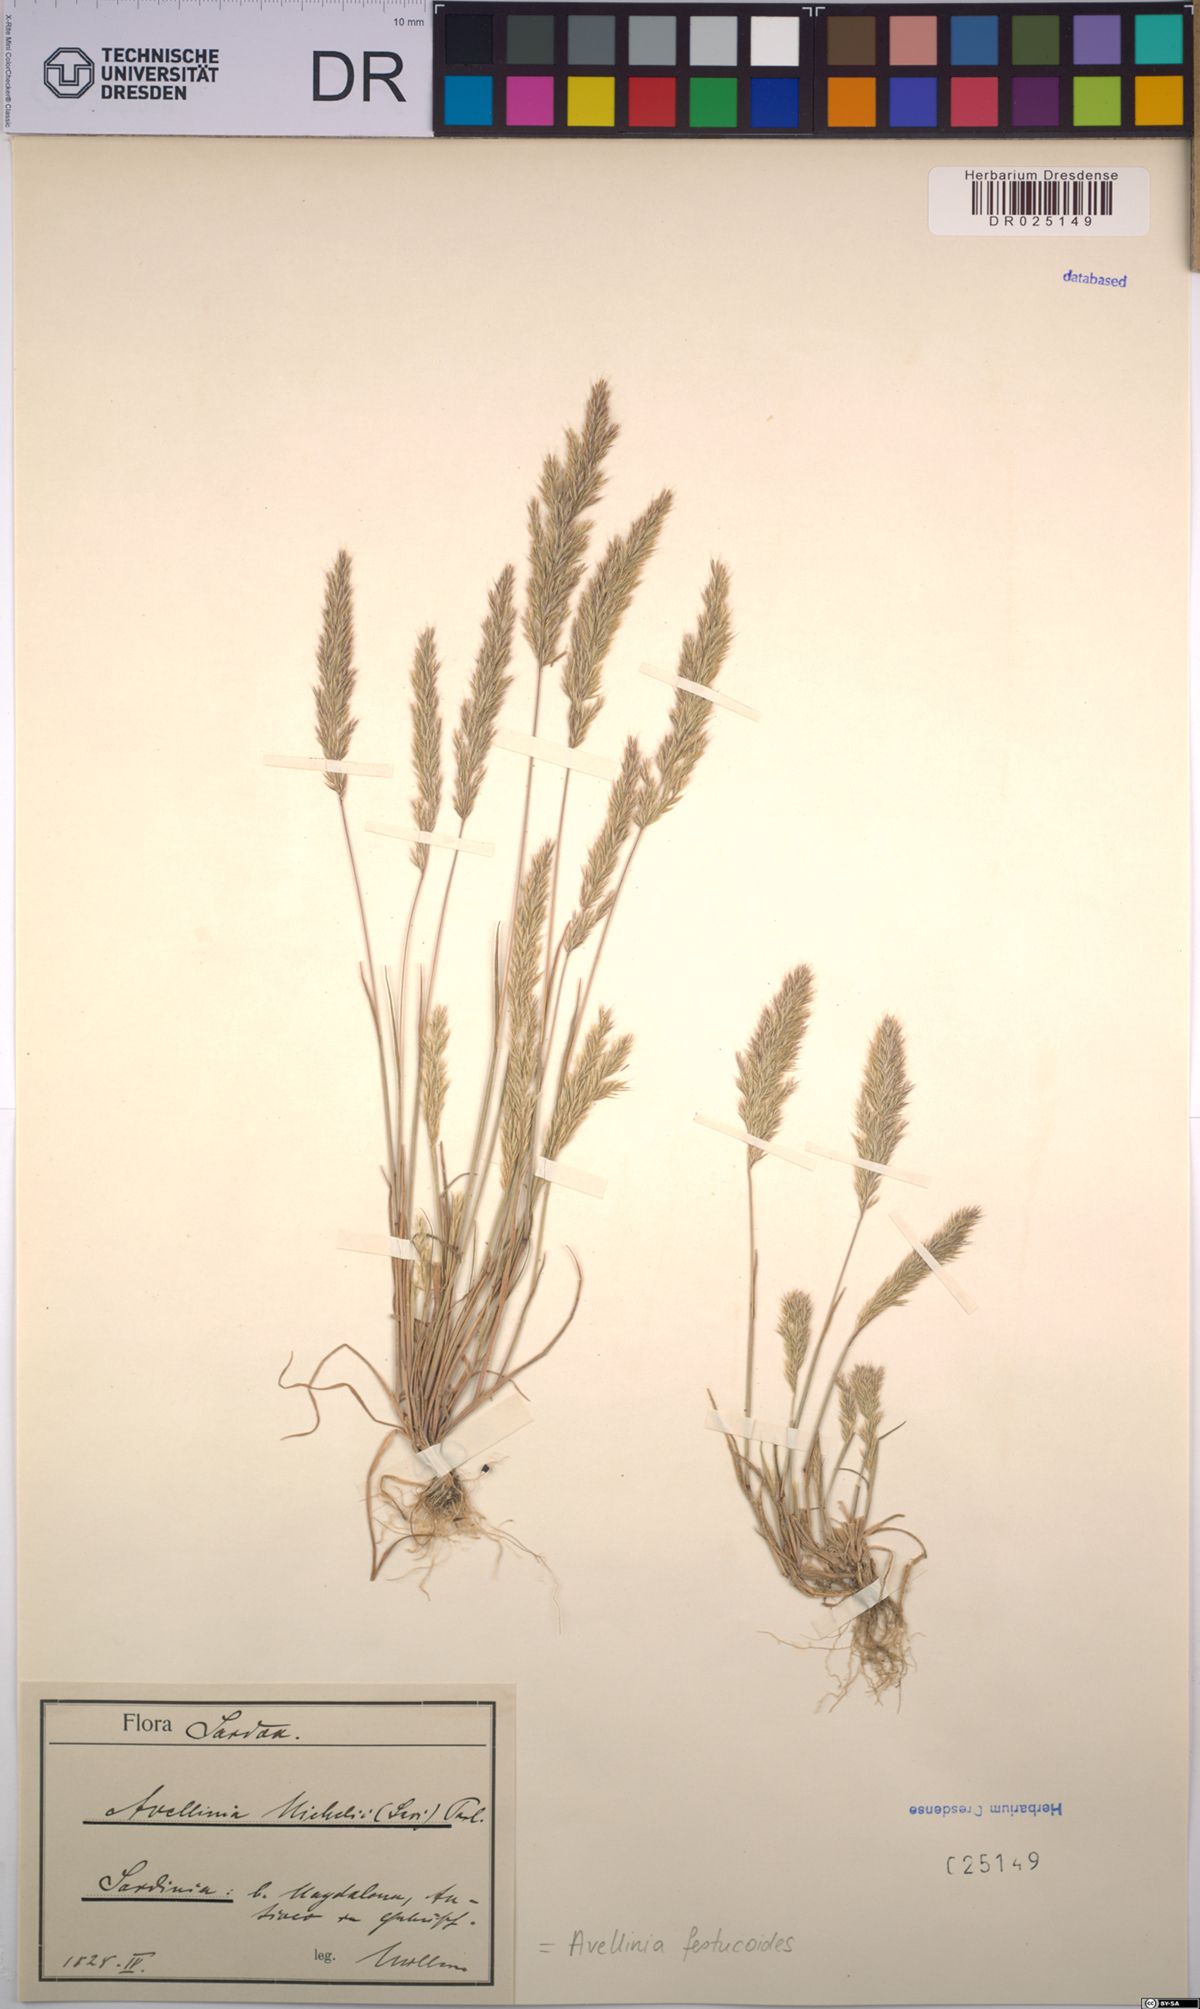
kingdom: Plantae
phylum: Tracheophyta
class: Liliopsida
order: Poales
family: Poaceae
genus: Avellinia
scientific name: Avellinia festucoides
